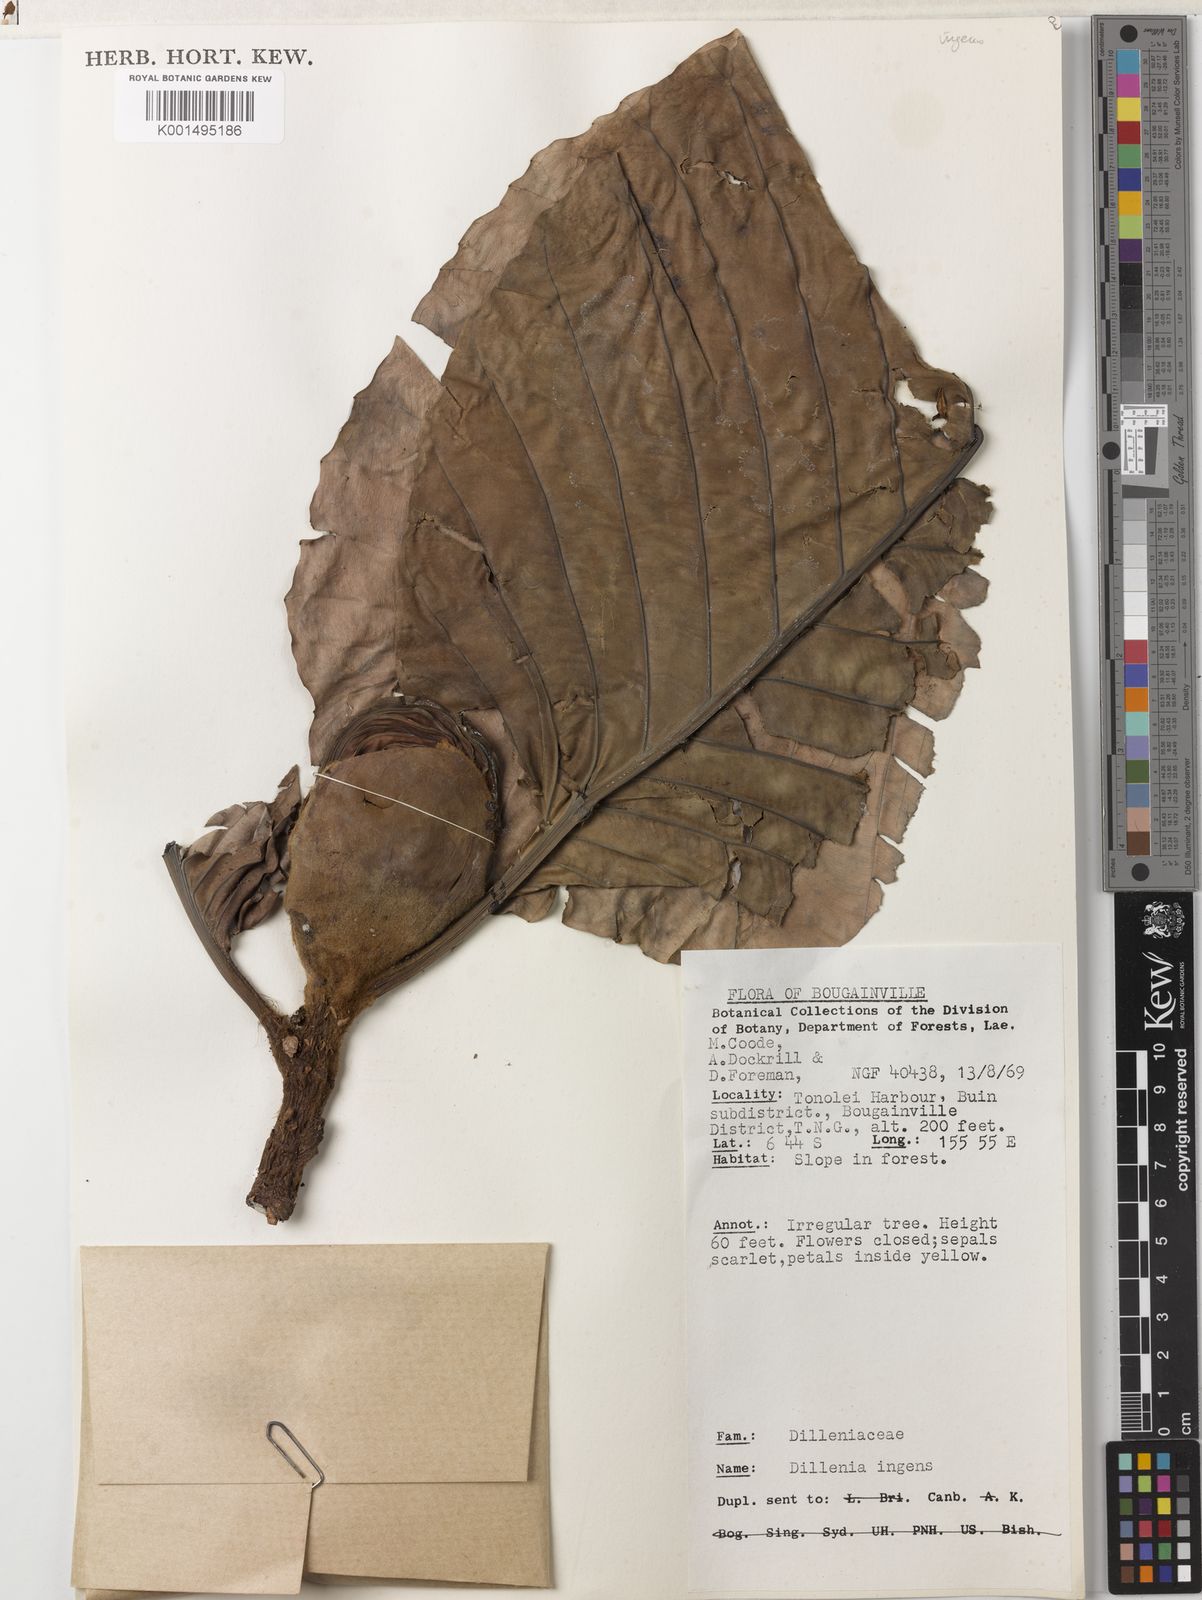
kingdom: Plantae
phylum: Tracheophyta
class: Magnoliopsida
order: Dilleniales
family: Dilleniaceae
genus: Dillenia
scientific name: Dillenia ingens
